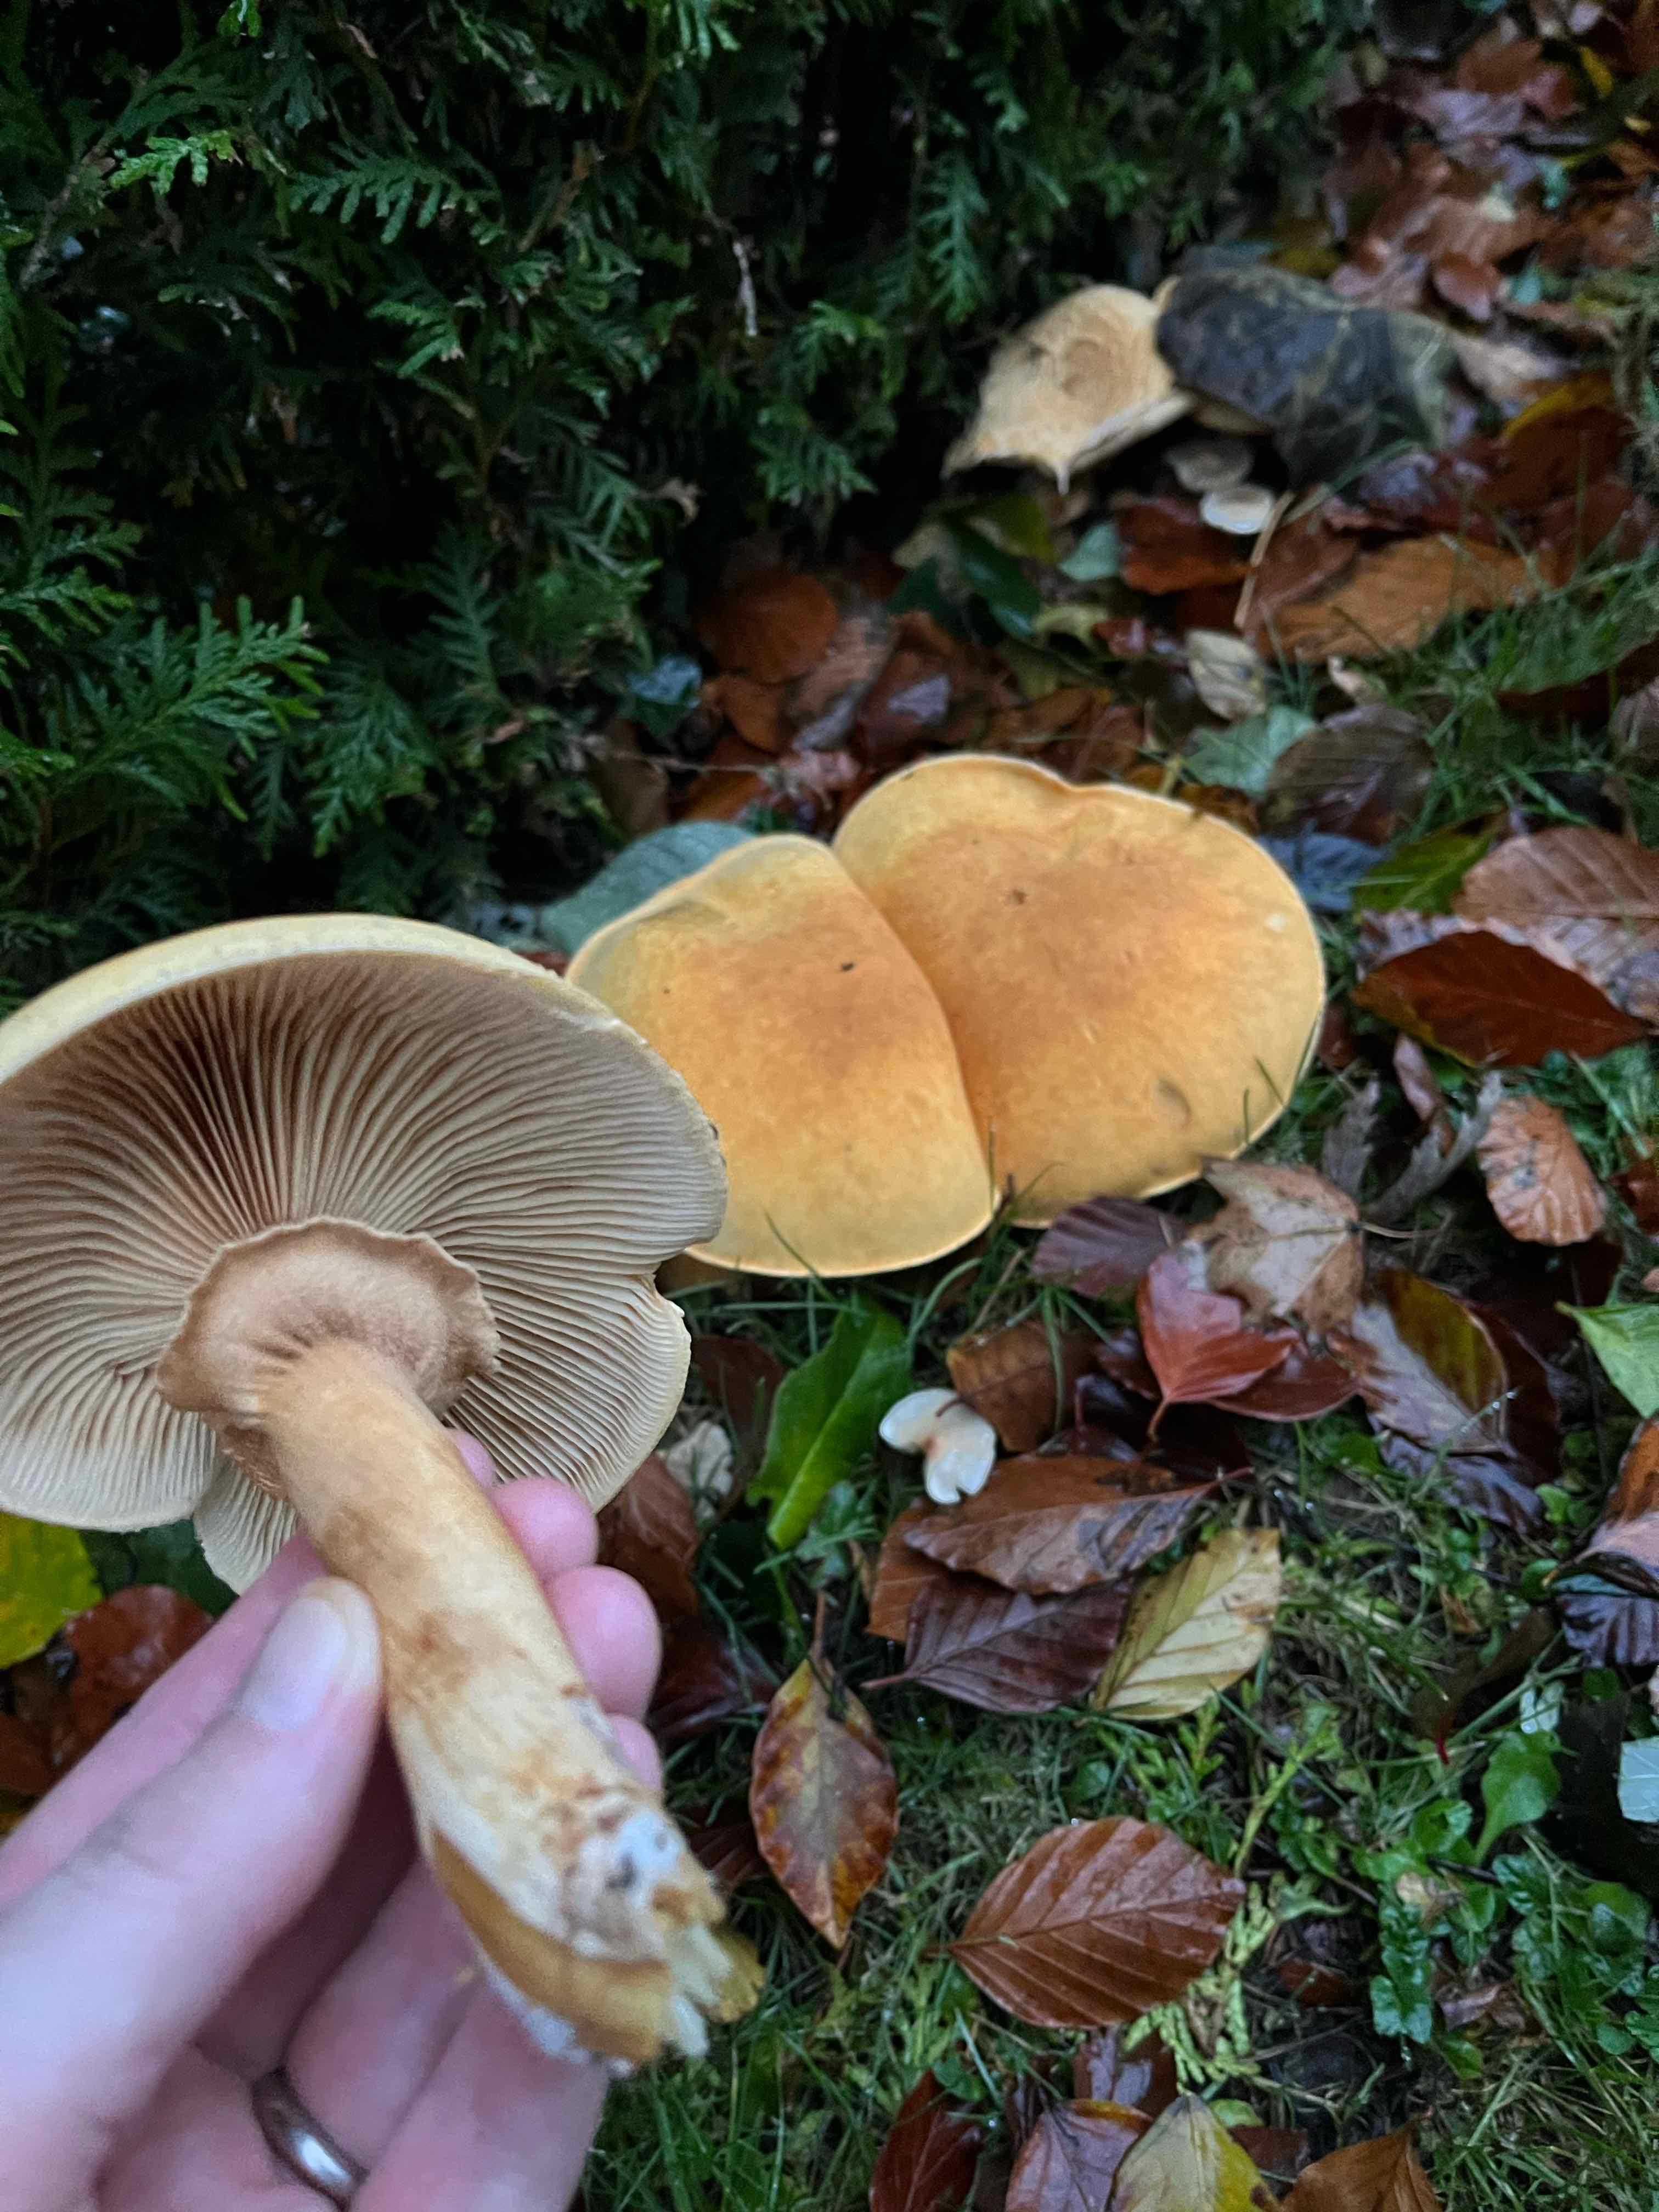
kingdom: Fungi
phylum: Basidiomycota
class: Agaricomycetes
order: Agaricales
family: Tricholomataceae
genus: Phaeolepiota
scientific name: Phaeolepiota aurea
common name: gyldenhat
